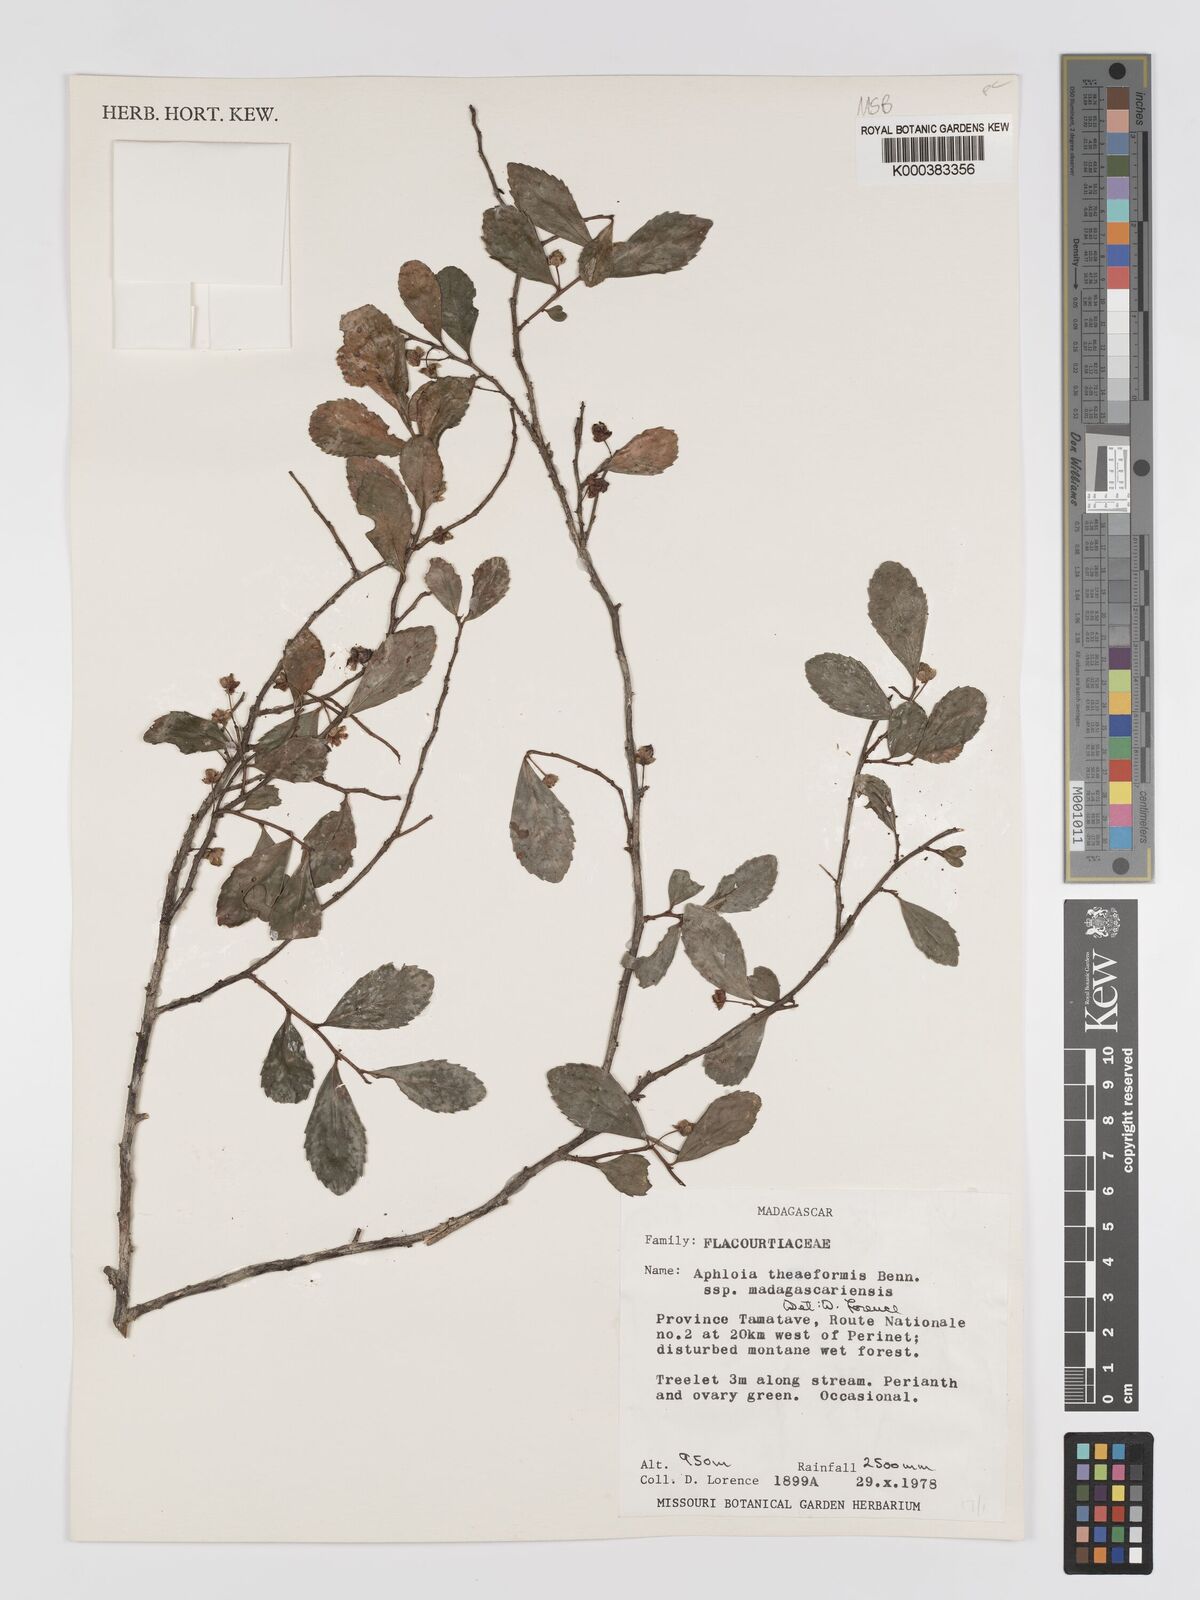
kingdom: Plantae
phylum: Tracheophyta
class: Magnoliopsida
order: Crossosomatales
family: Aphloiaceae
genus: Aphloia
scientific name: Aphloia theiformis
